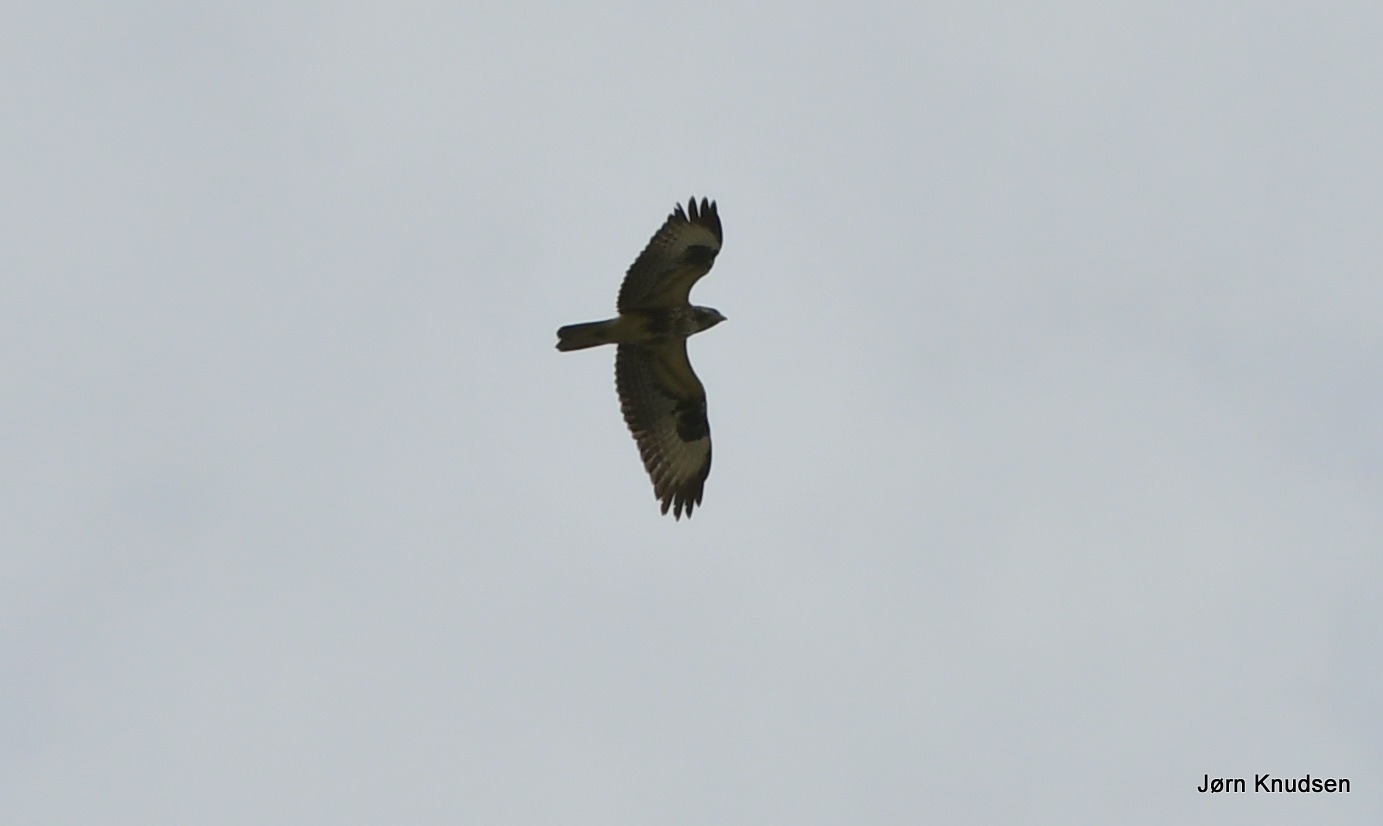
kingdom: Animalia
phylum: Chordata
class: Aves
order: Accipitriformes
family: Accipitridae
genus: Buteo
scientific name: Buteo buteo
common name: Musvåge
